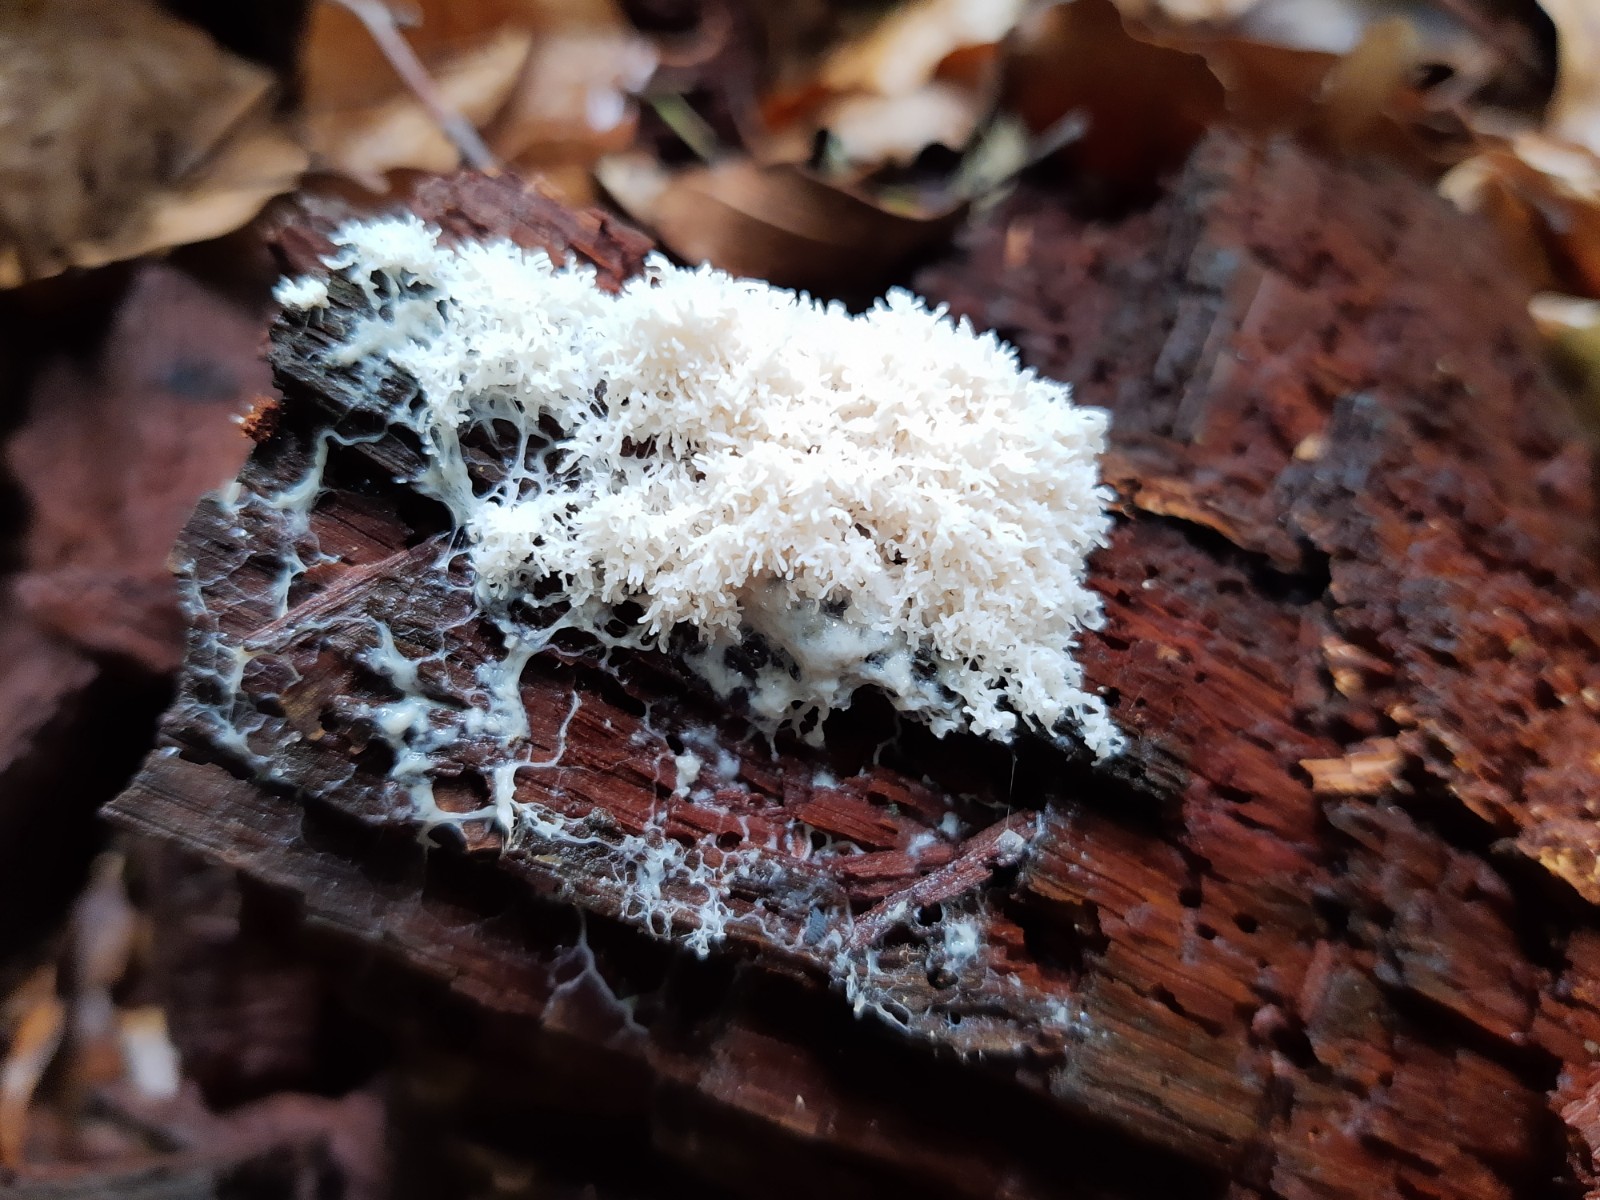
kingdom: Protozoa
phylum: Mycetozoa
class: Myxomycetes
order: Physarales
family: Physaraceae
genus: Fuligo
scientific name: Fuligo septica
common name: Dog vomit slime mold
